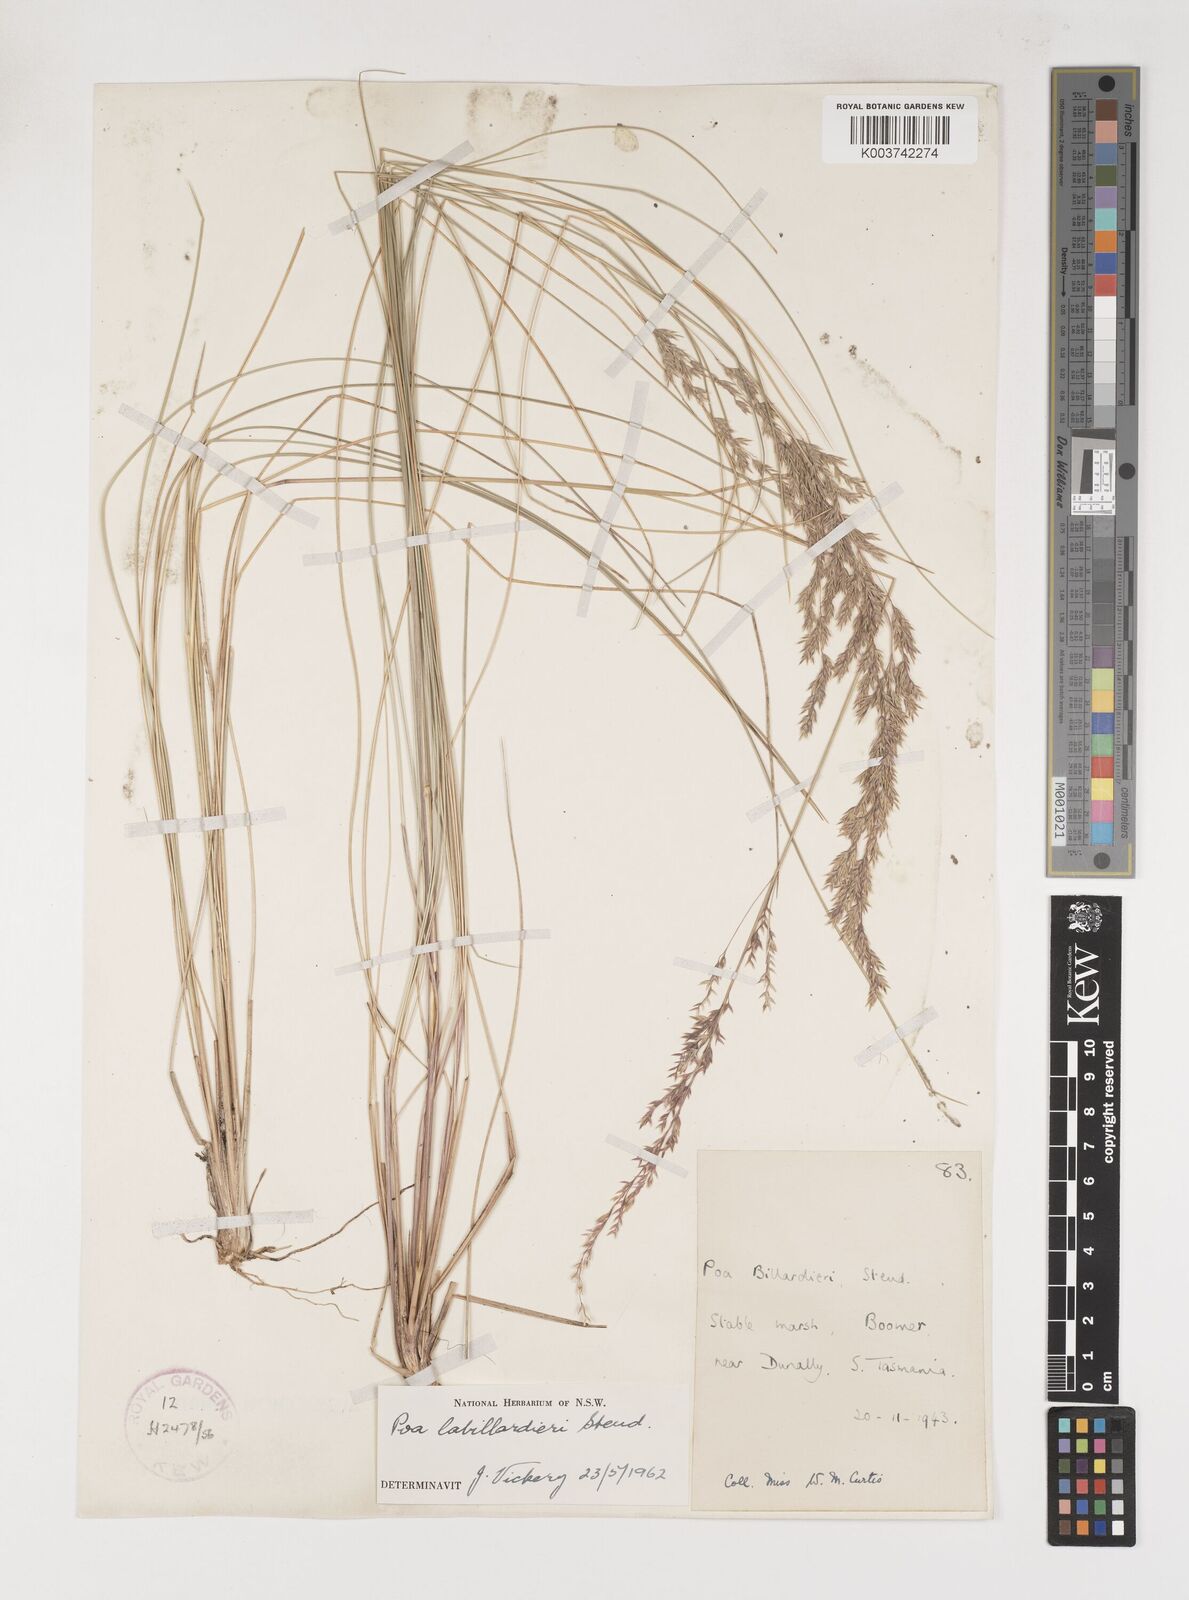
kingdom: Plantae
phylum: Tracheophyta
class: Liliopsida
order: Poales
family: Poaceae
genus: Poa
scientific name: Poa labillardierei
